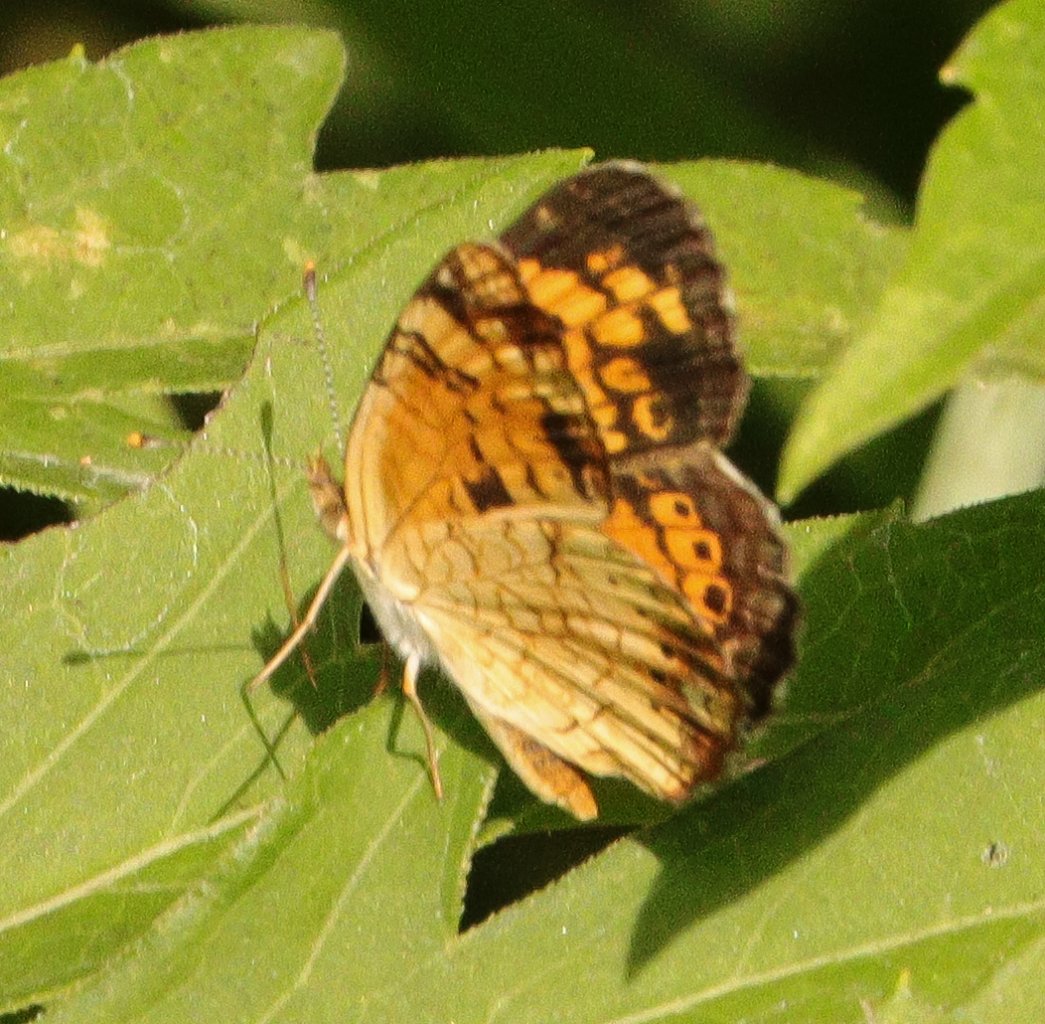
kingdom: Animalia
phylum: Arthropoda
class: Insecta
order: Lepidoptera
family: Nymphalidae
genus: Phyciodes
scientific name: Phyciodes tharos
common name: Pearl Crescent
